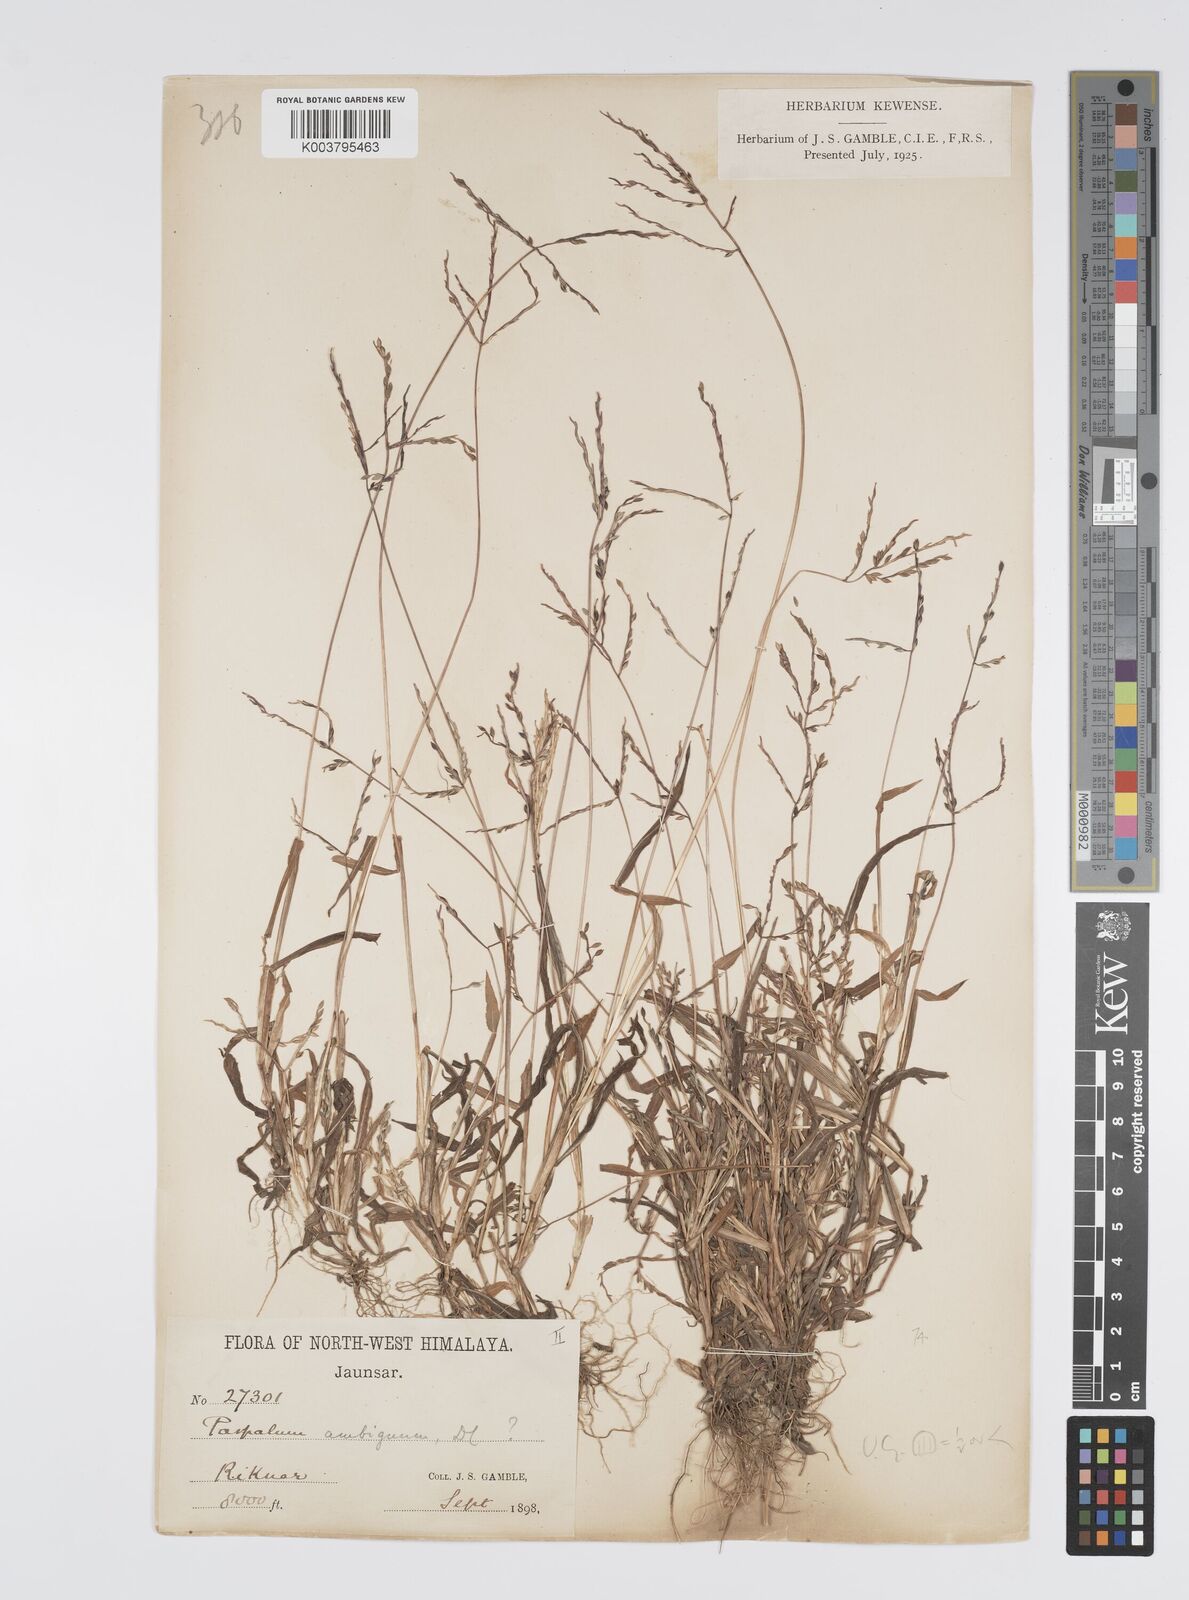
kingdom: Plantae
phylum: Tracheophyta
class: Liliopsida
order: Poales
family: Poaceae
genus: Digitaria
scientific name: Digitaria cruciata
